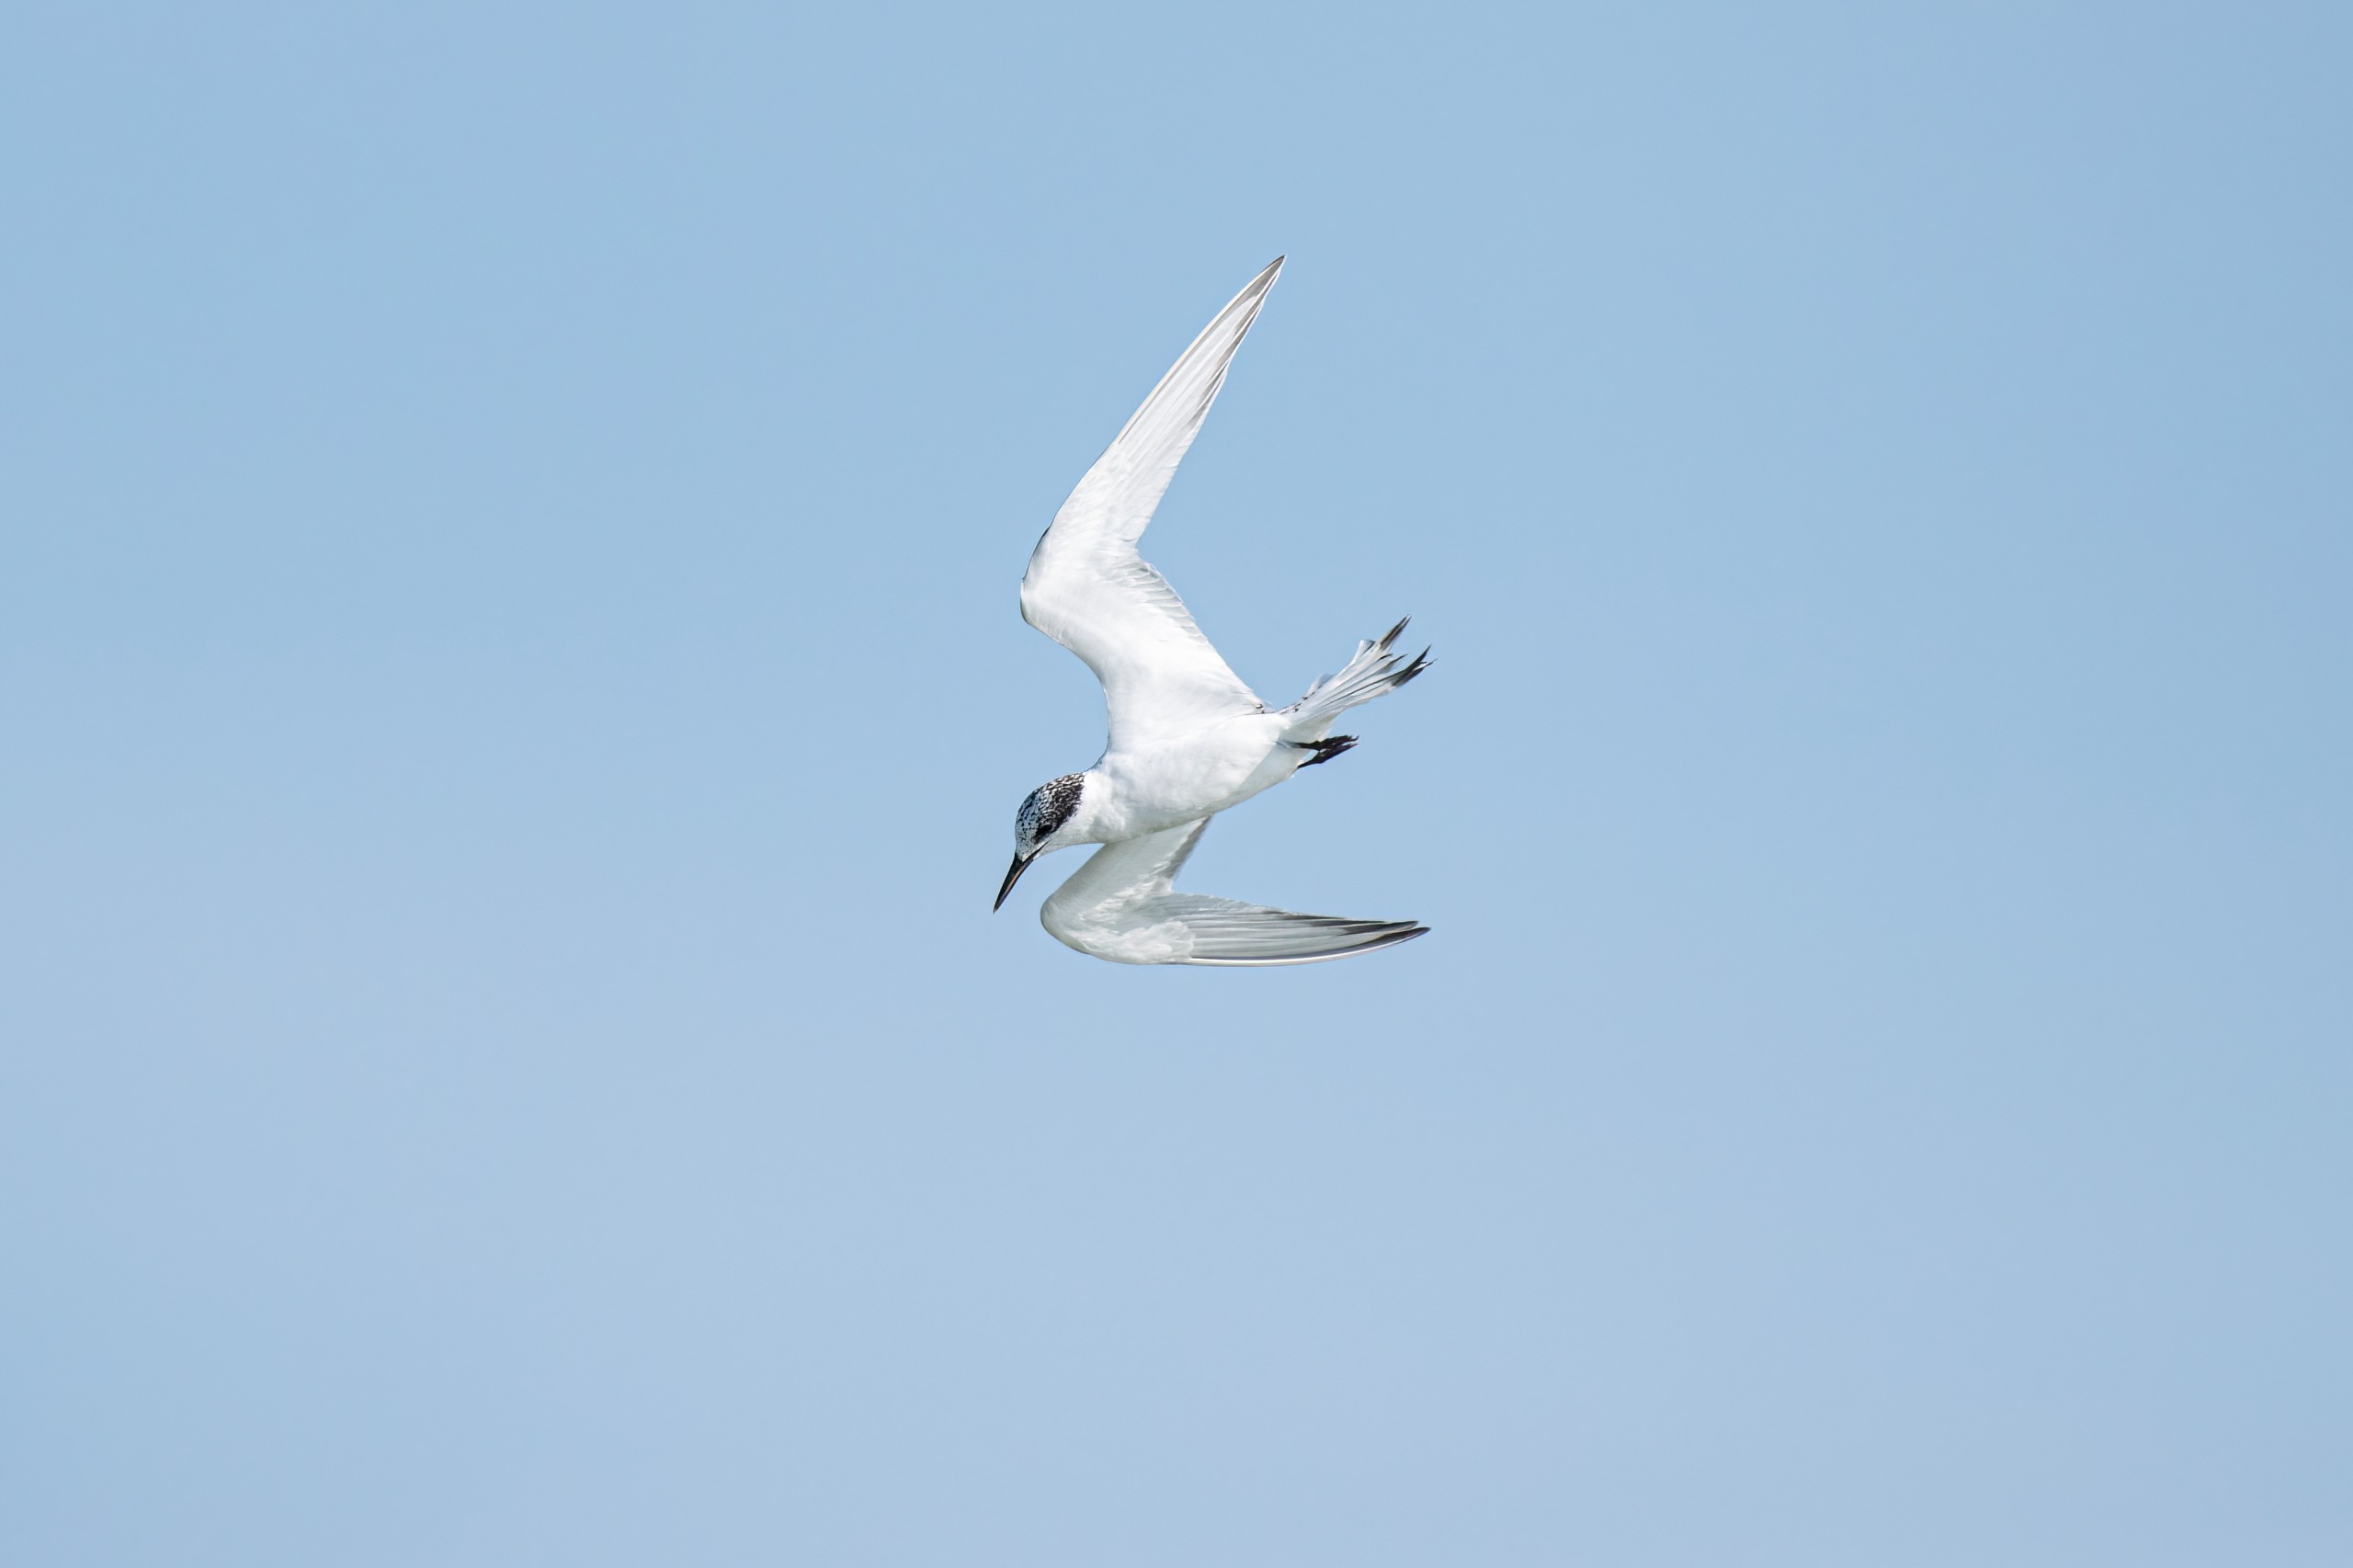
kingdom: Animalia
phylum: Chordata
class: Aves
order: Charadriiformes
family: Laridae
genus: Thalasseus
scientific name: Thalasseus sandvicensis
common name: Splitterne
